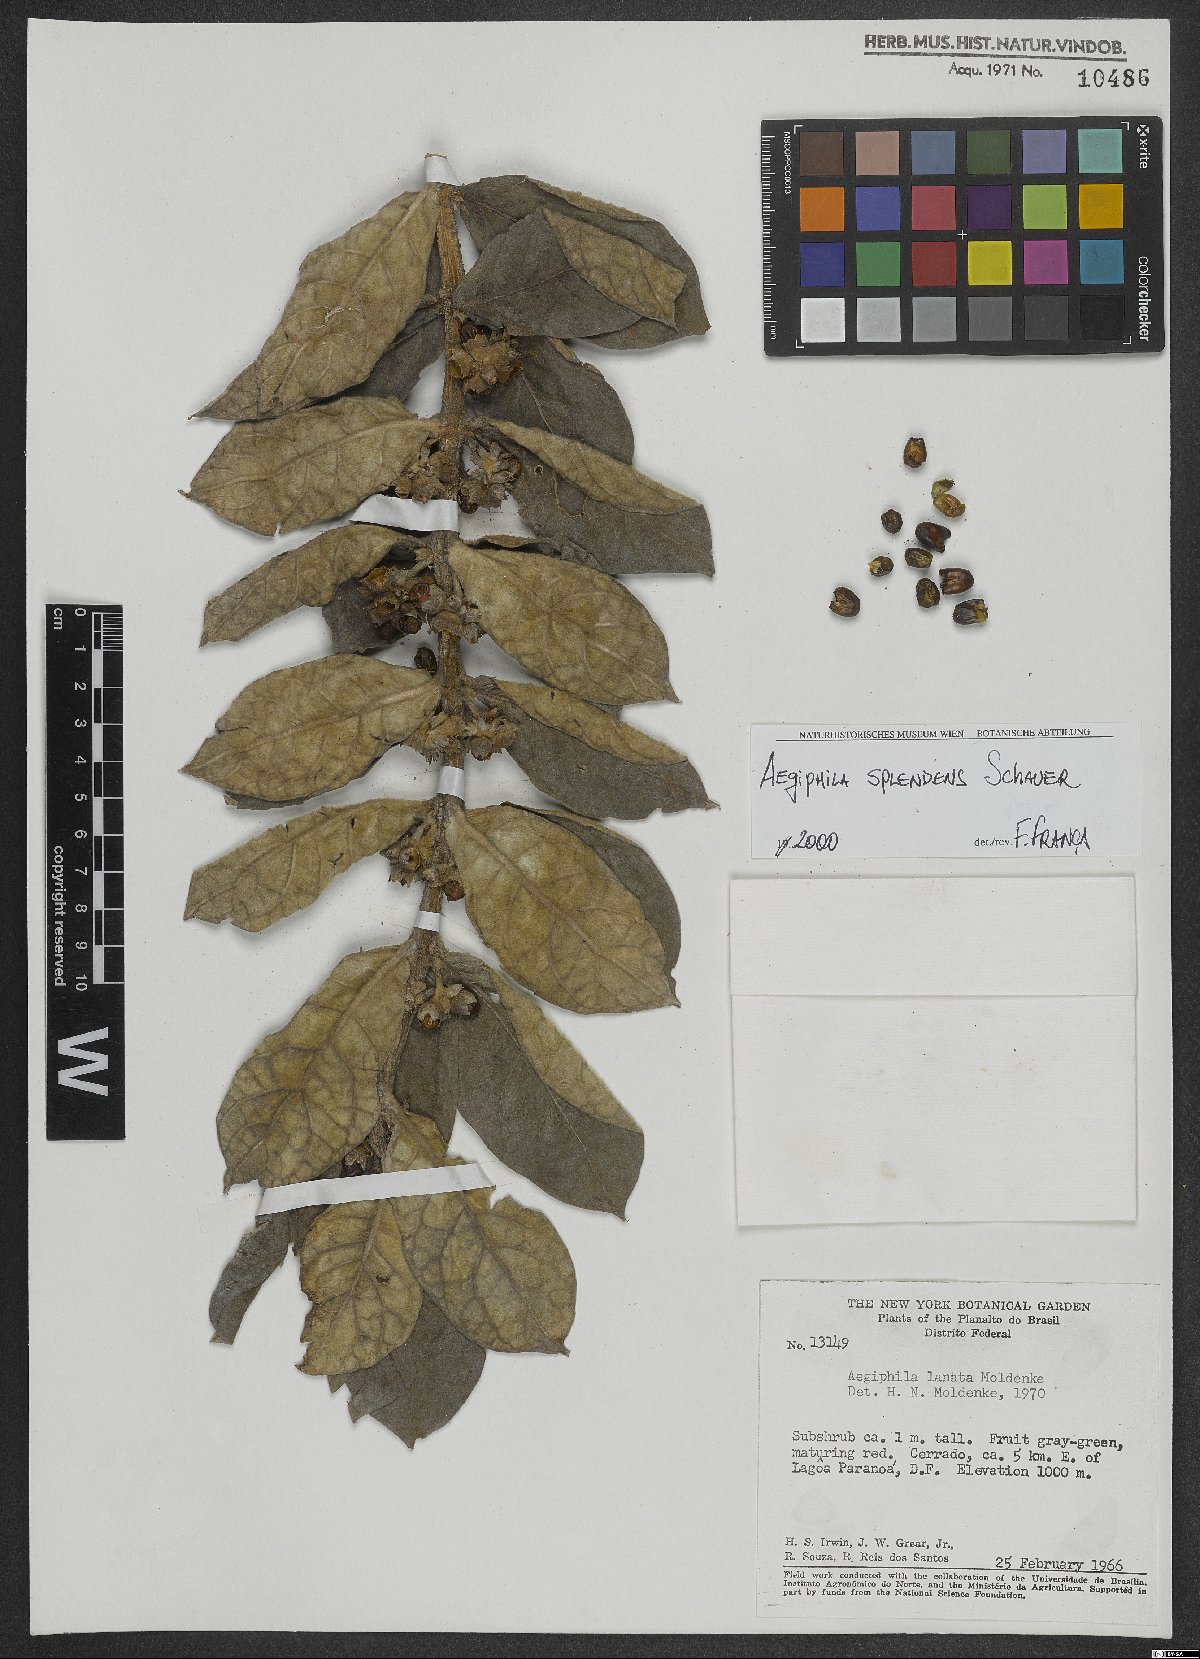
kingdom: Plantae
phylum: Tracheophyta
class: Magnoliopsida
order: Lamiales
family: Lamiaceae
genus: Aegiphila
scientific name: Aegiphila verticillata
